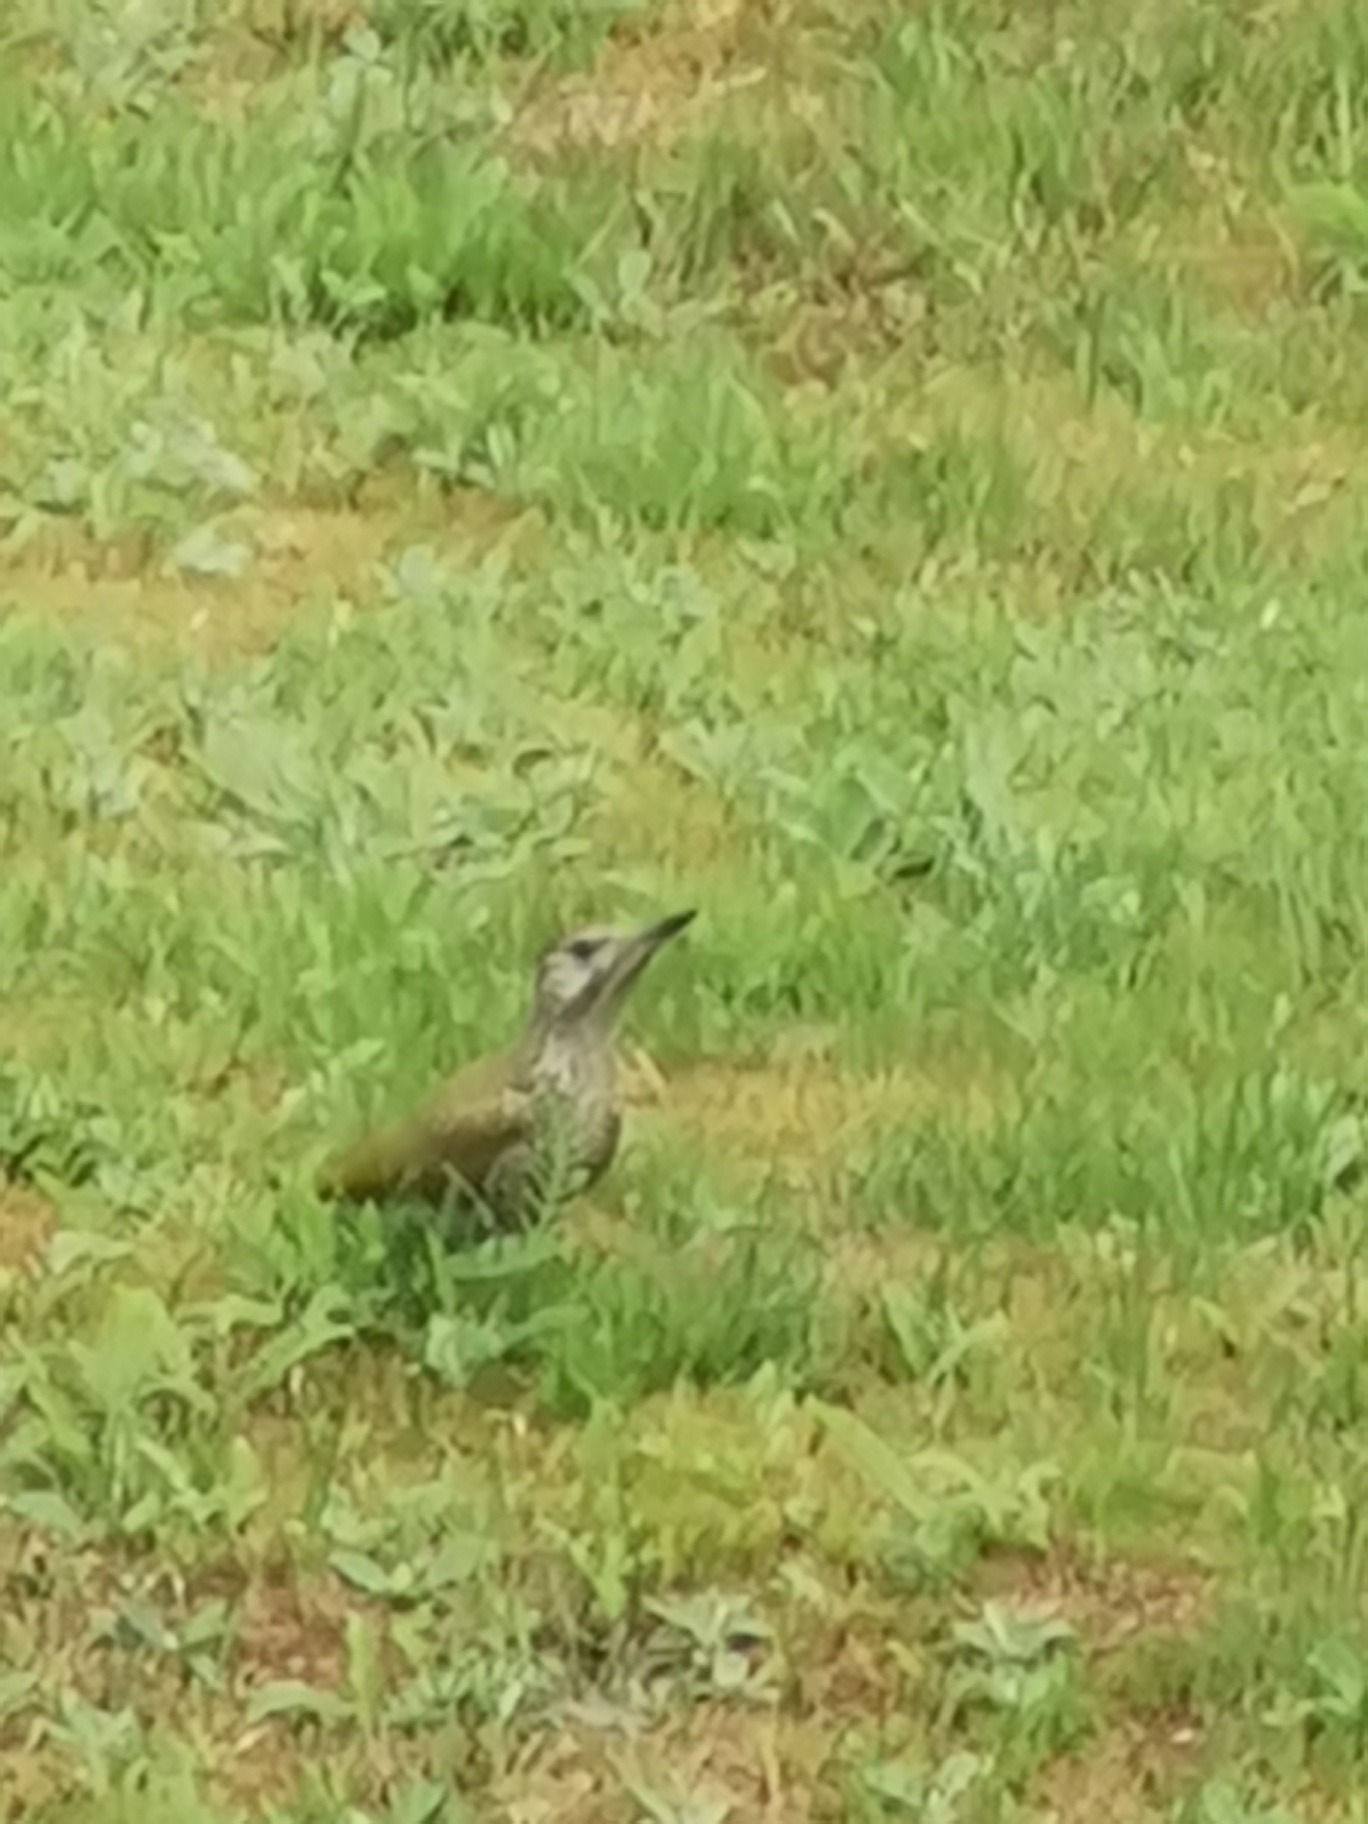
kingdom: Animalia
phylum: Chordata
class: Aves
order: Piciformes
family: Picidae
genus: Picus
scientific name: Picus viridis
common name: Grønspætte
